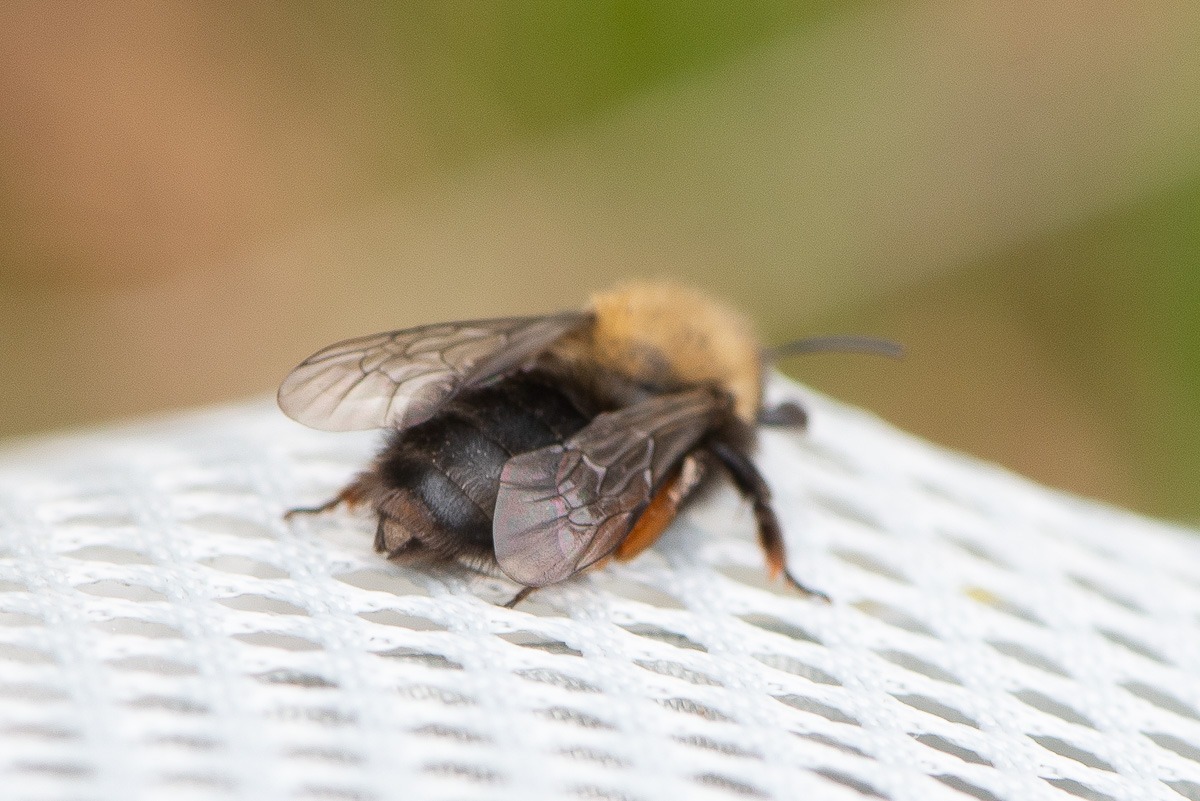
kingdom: Animalia
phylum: Arthropoda
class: Insecta
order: Hymenoptera
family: Andrenidae
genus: Andrena
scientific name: Andrena clarkella
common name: Rødbrystet jordbi
